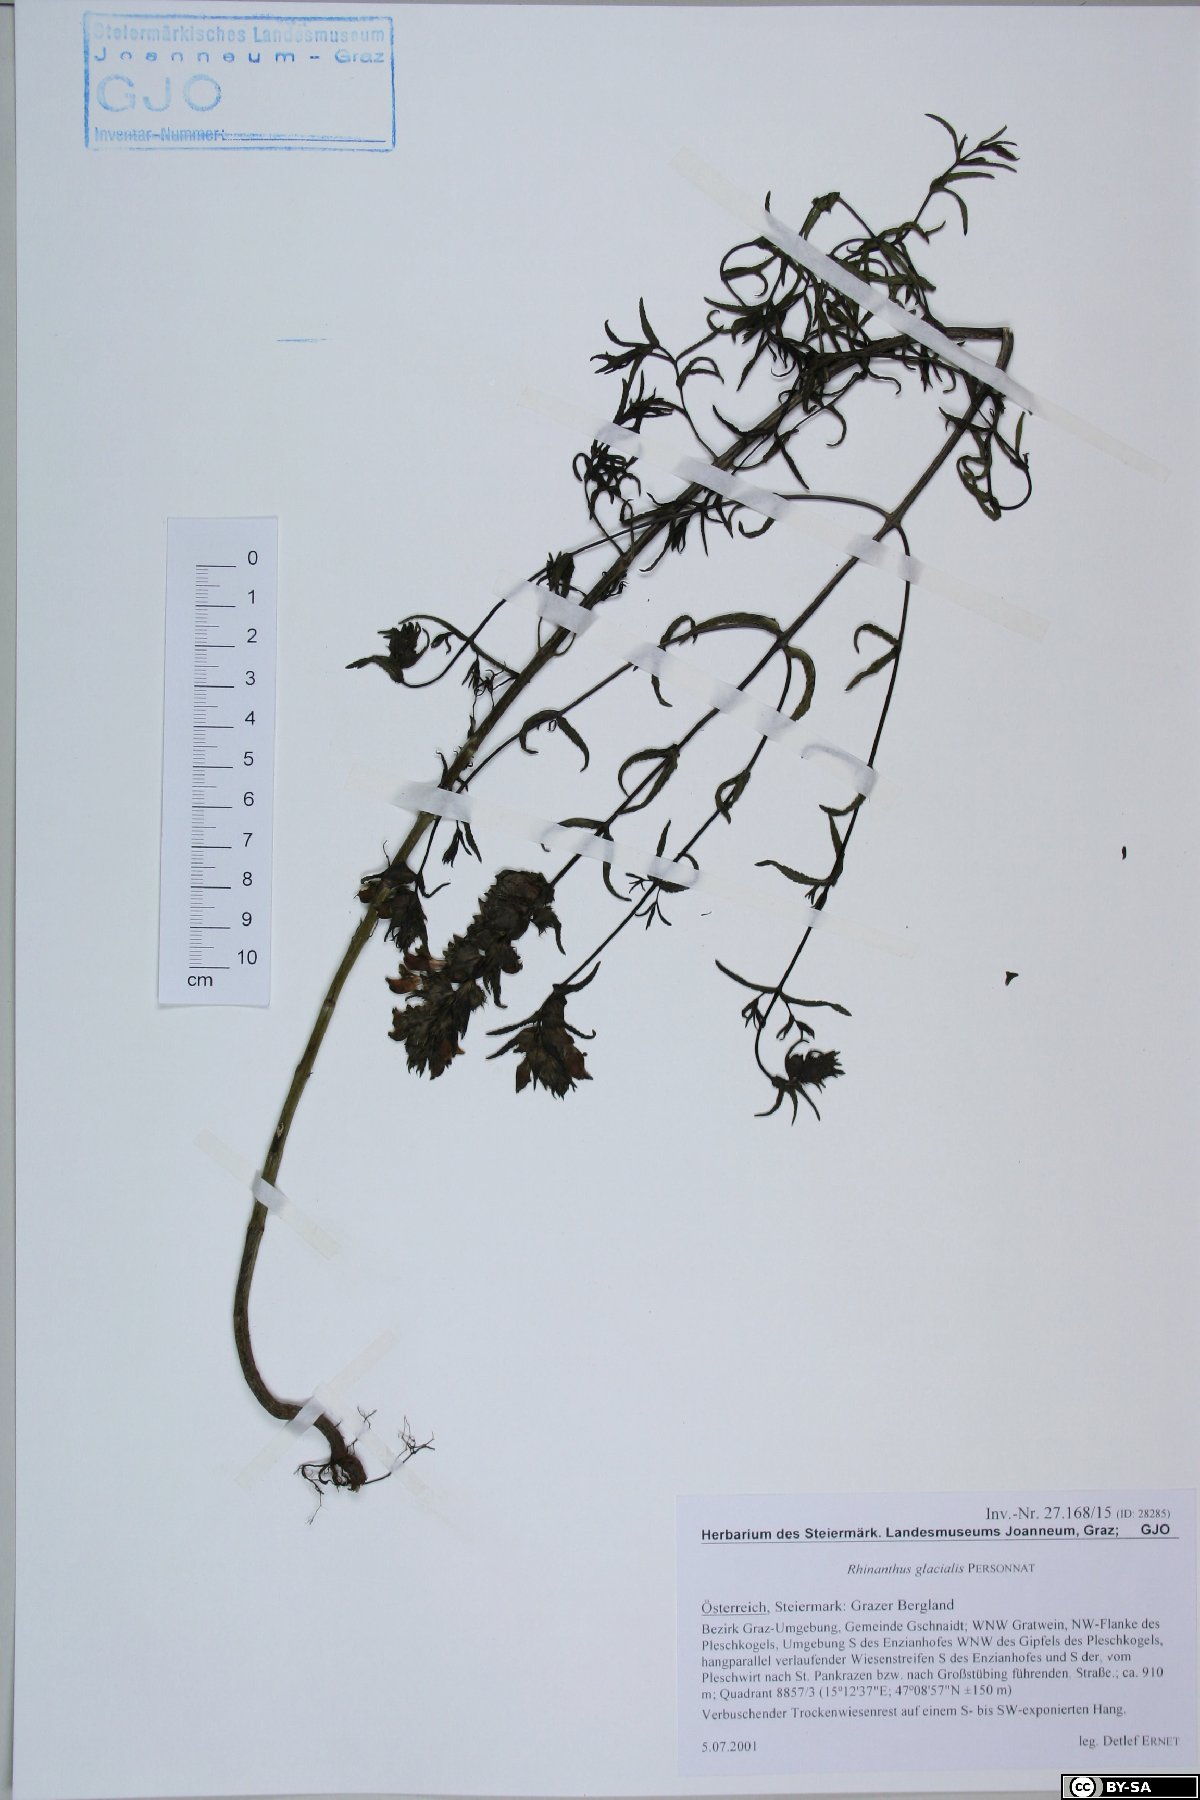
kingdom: Plantae
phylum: Tracheophyta
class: Magnoliopsida
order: Lamiales
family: Orobanchaceae
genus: Rhinanthus
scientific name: Rhinanthus glacialis
